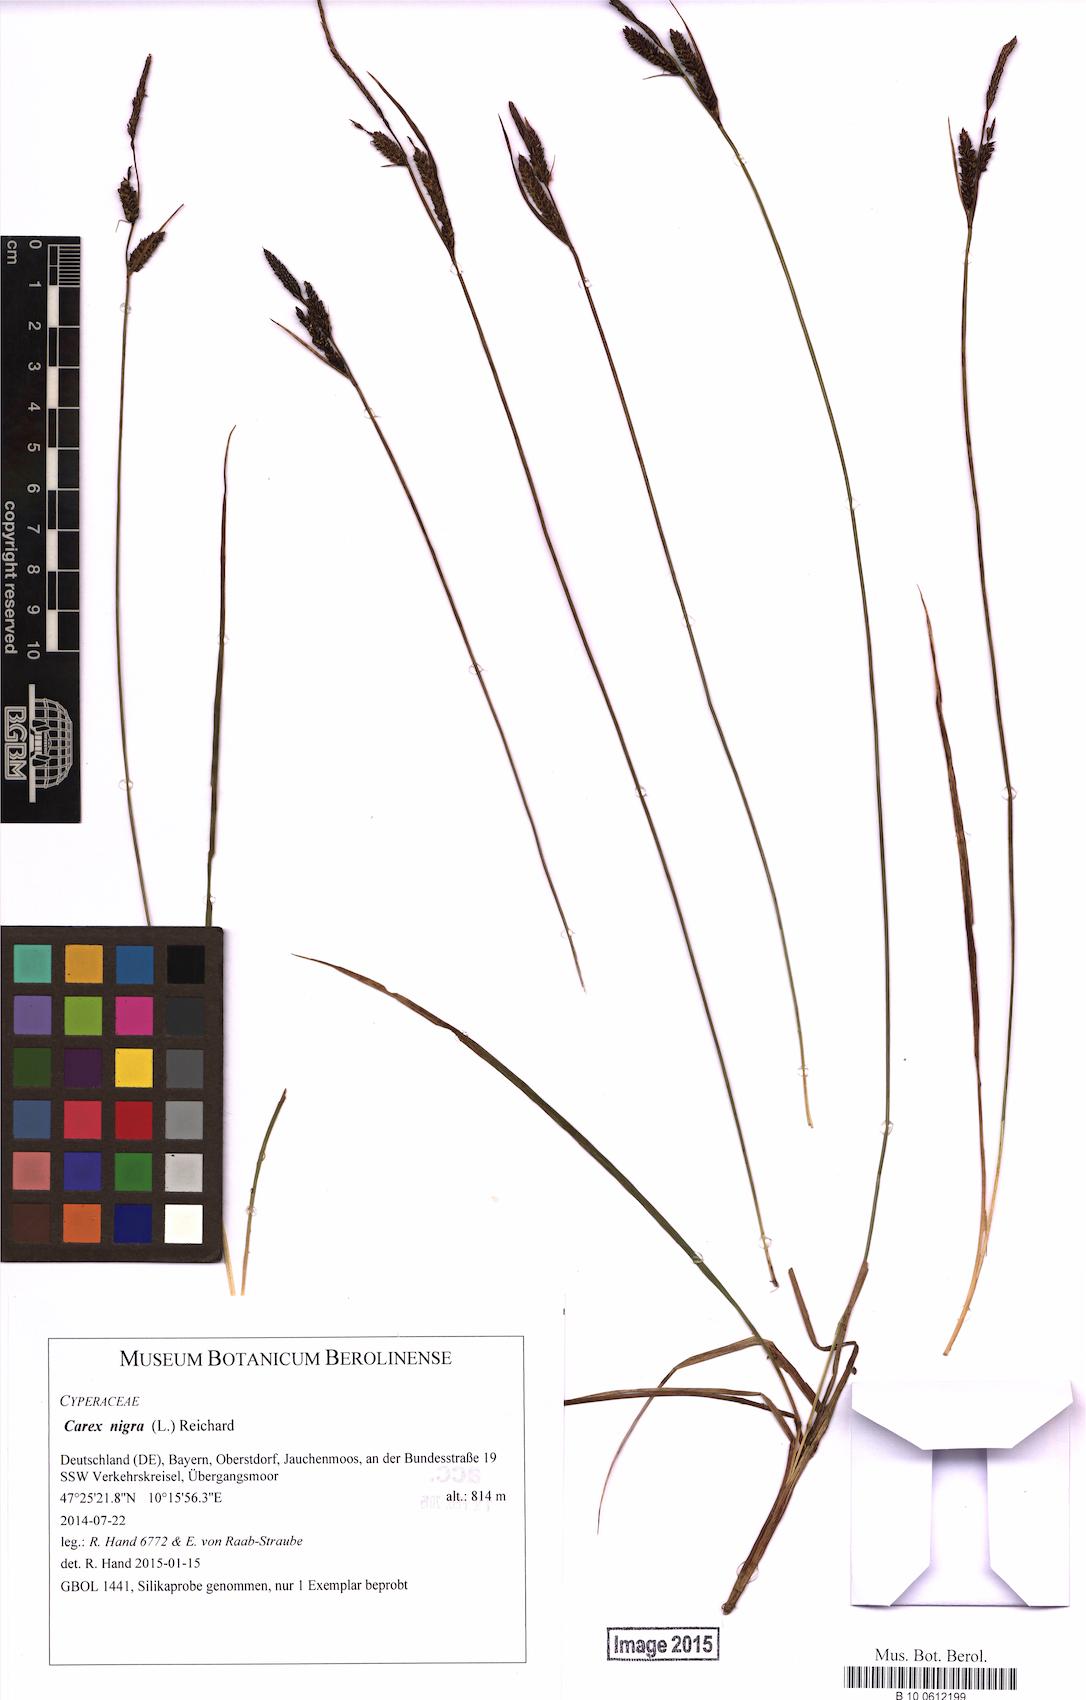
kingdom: Plantae
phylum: Tracheophyta
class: Liliopsida
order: Poales
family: Cyperaceae
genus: Carex
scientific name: Carex nigra
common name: Common sedge
